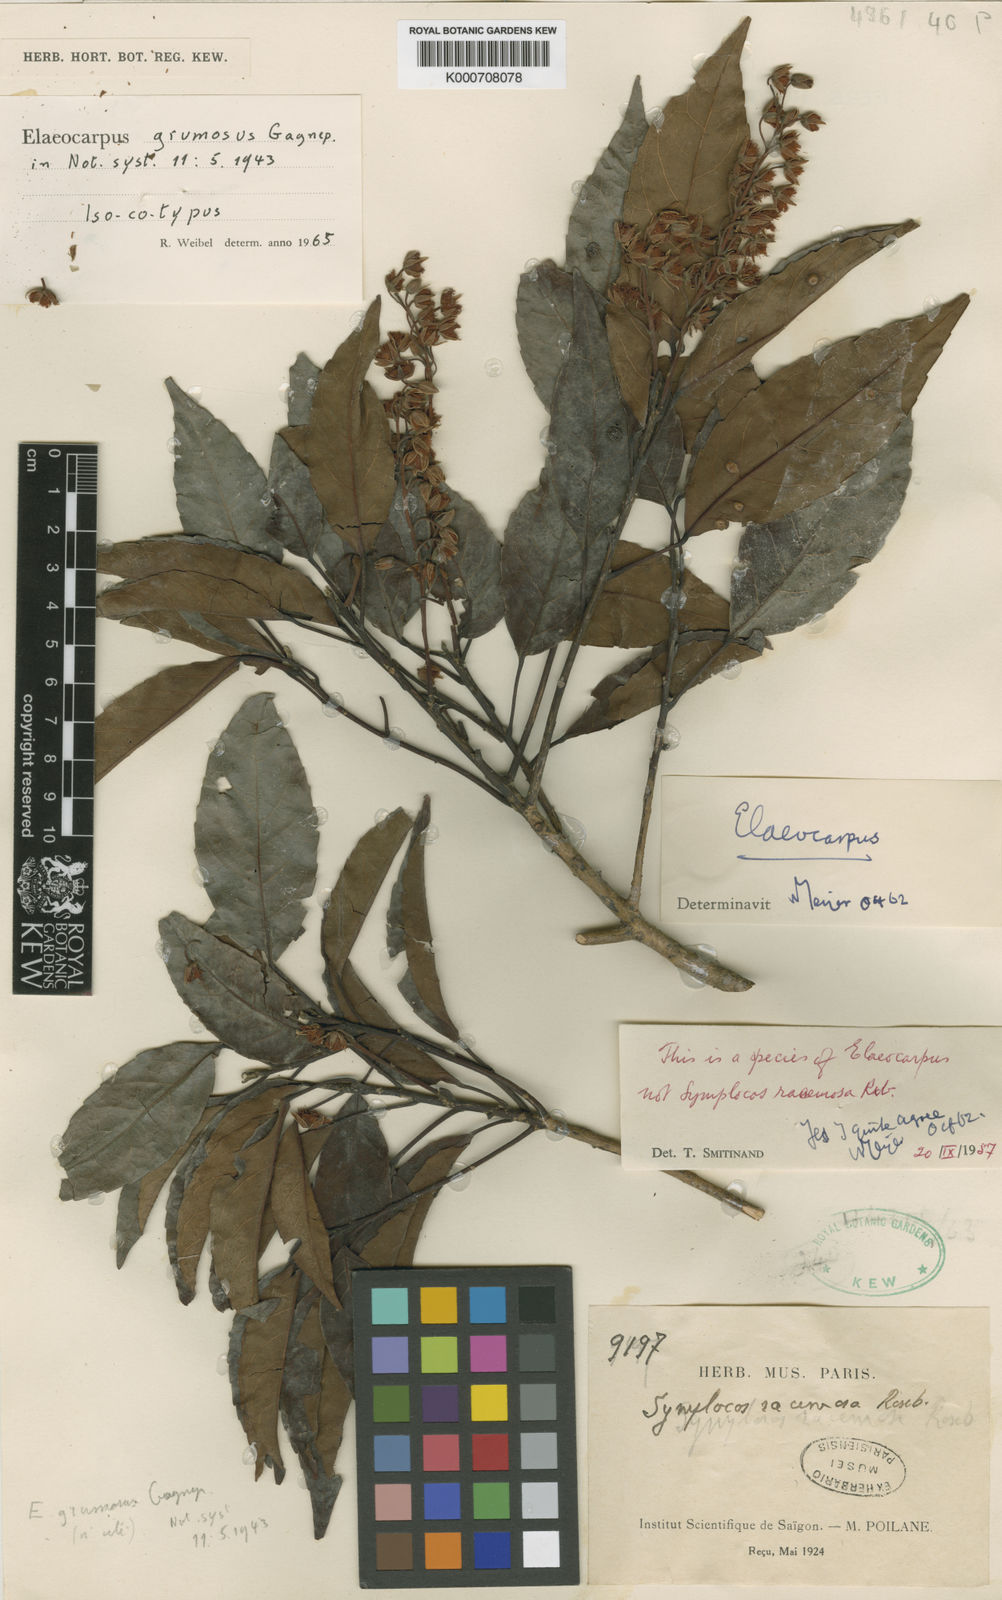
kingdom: Plantae
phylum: Tracheophyta
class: Magnoliopsida
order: Oxalidales
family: Elaeocarpaceae
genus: Elaeocarpus
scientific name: Elaeocarpus grumosus
